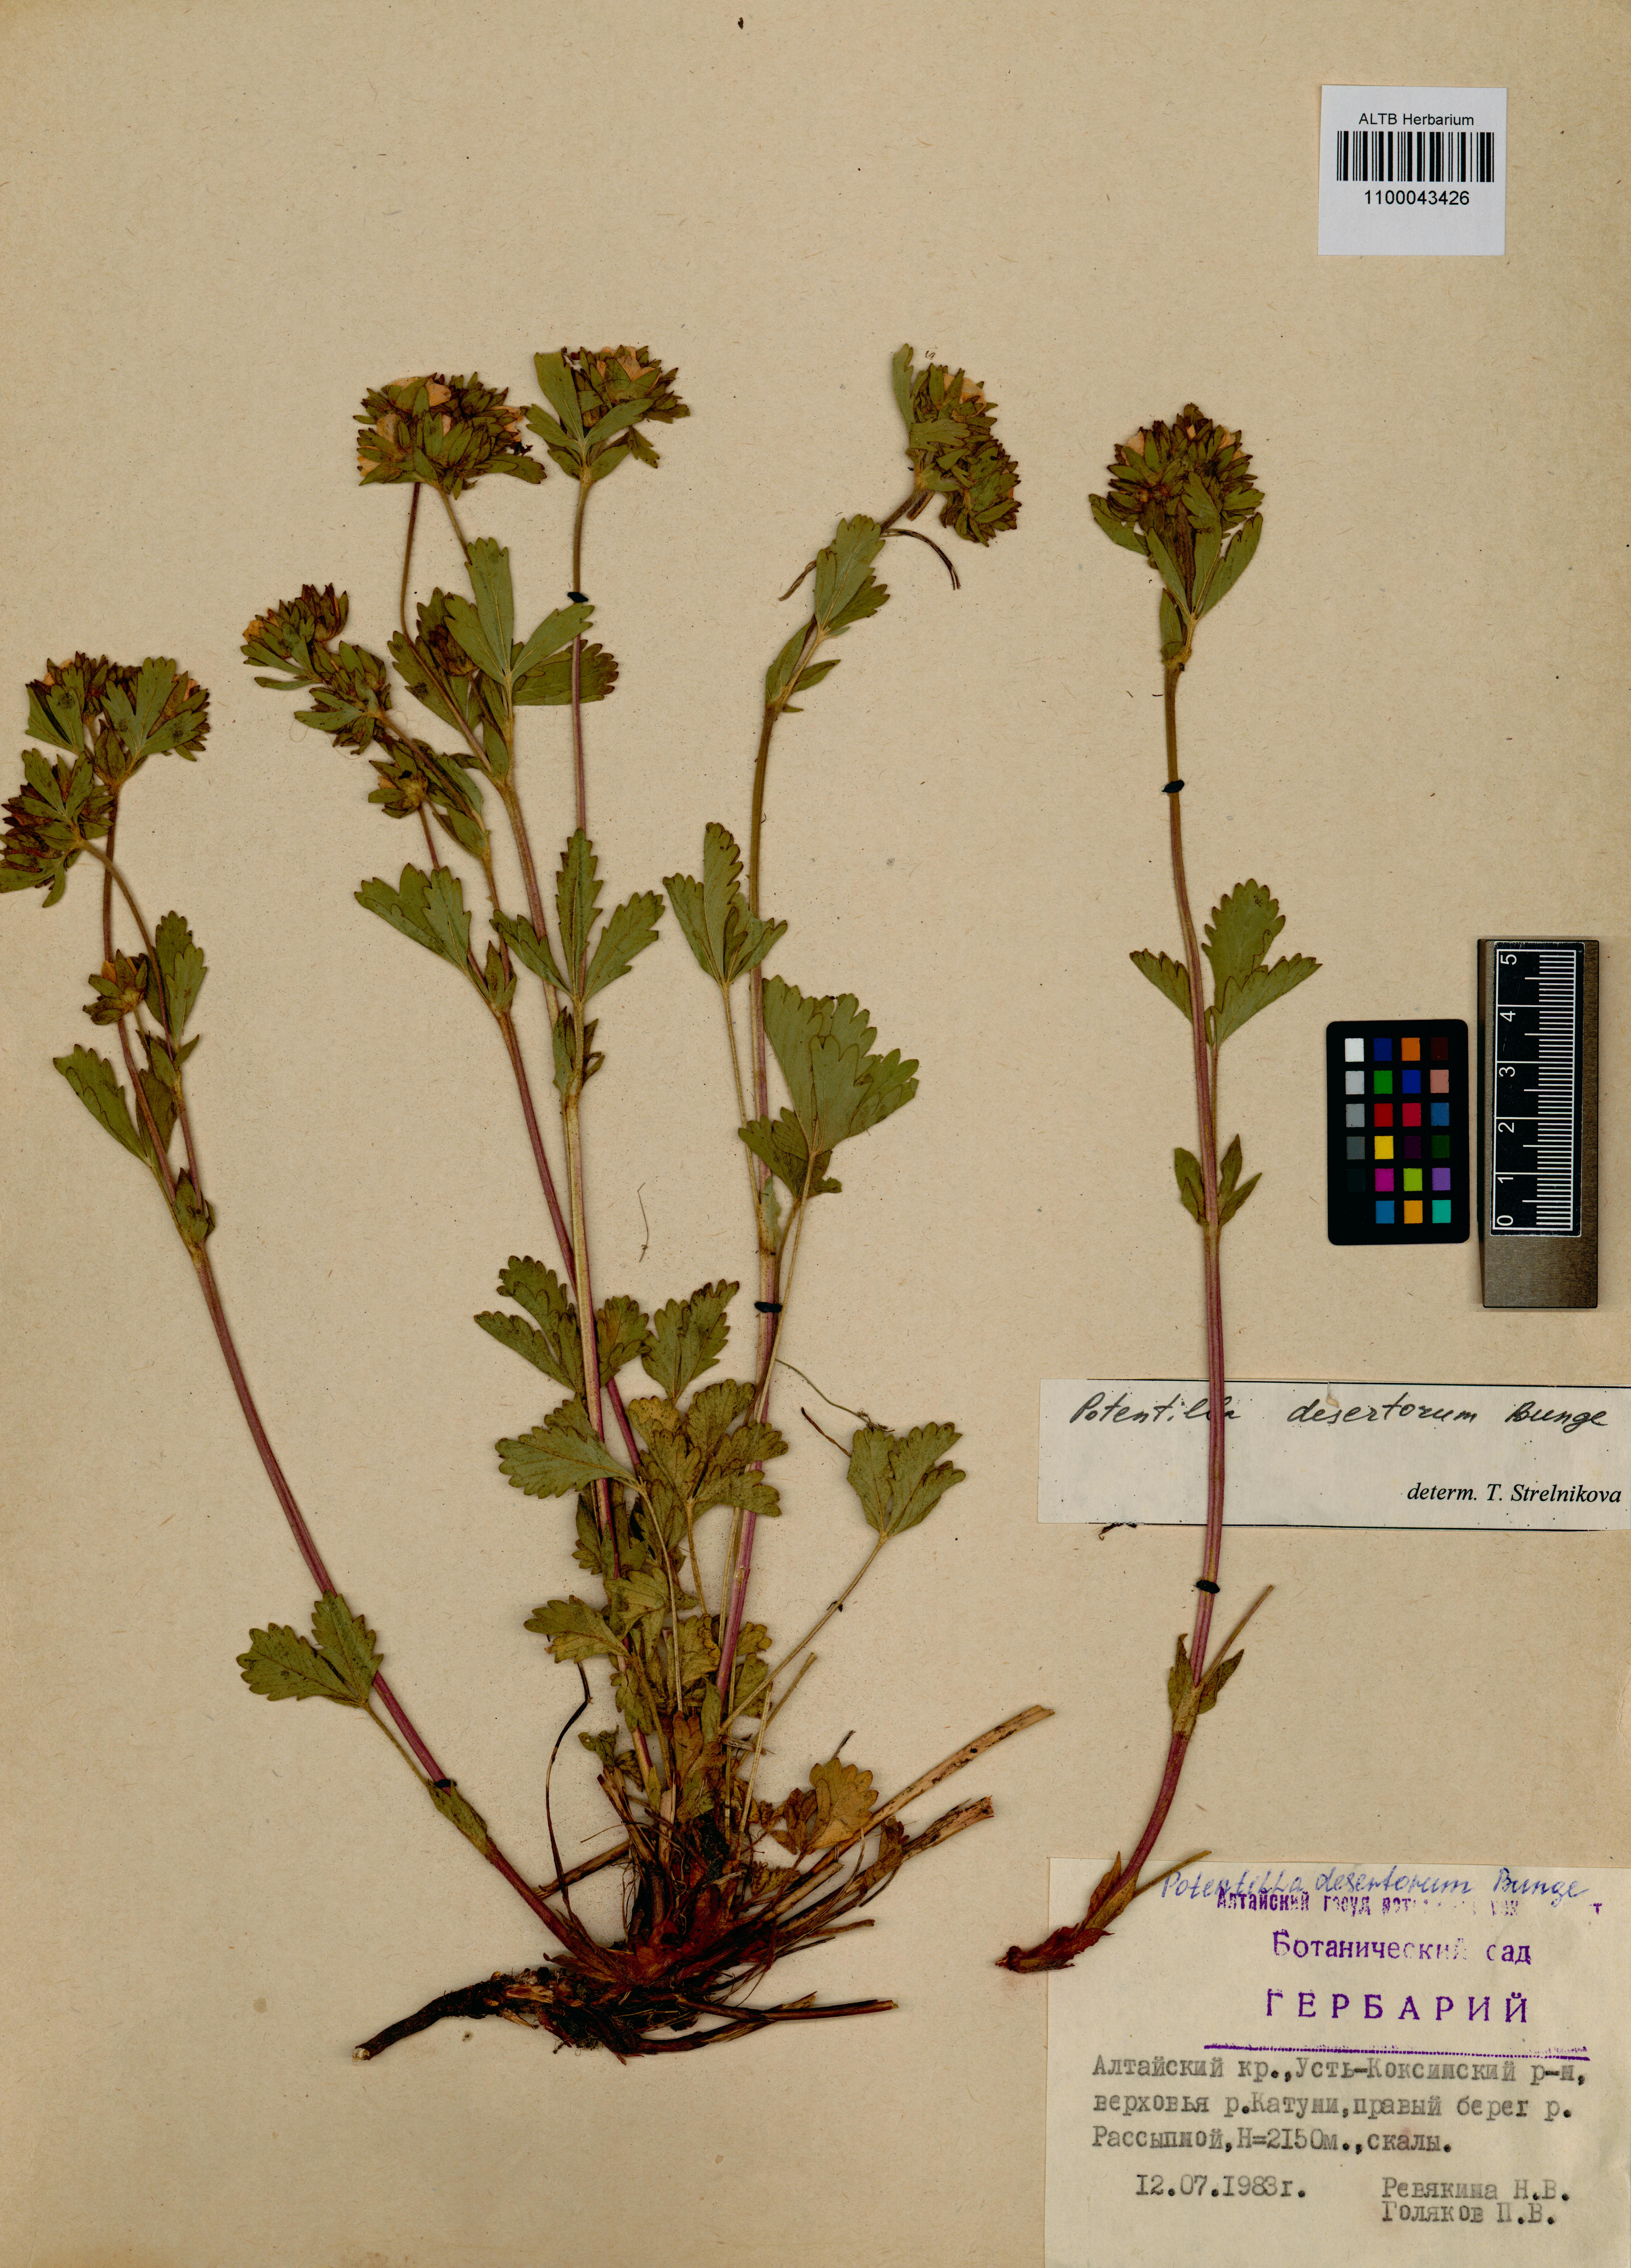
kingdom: Plantae
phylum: Tracheophyta
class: Magnoliopsida
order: Rosales
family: Rosaceae
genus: Potentilla
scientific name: Potentilla desertorum
